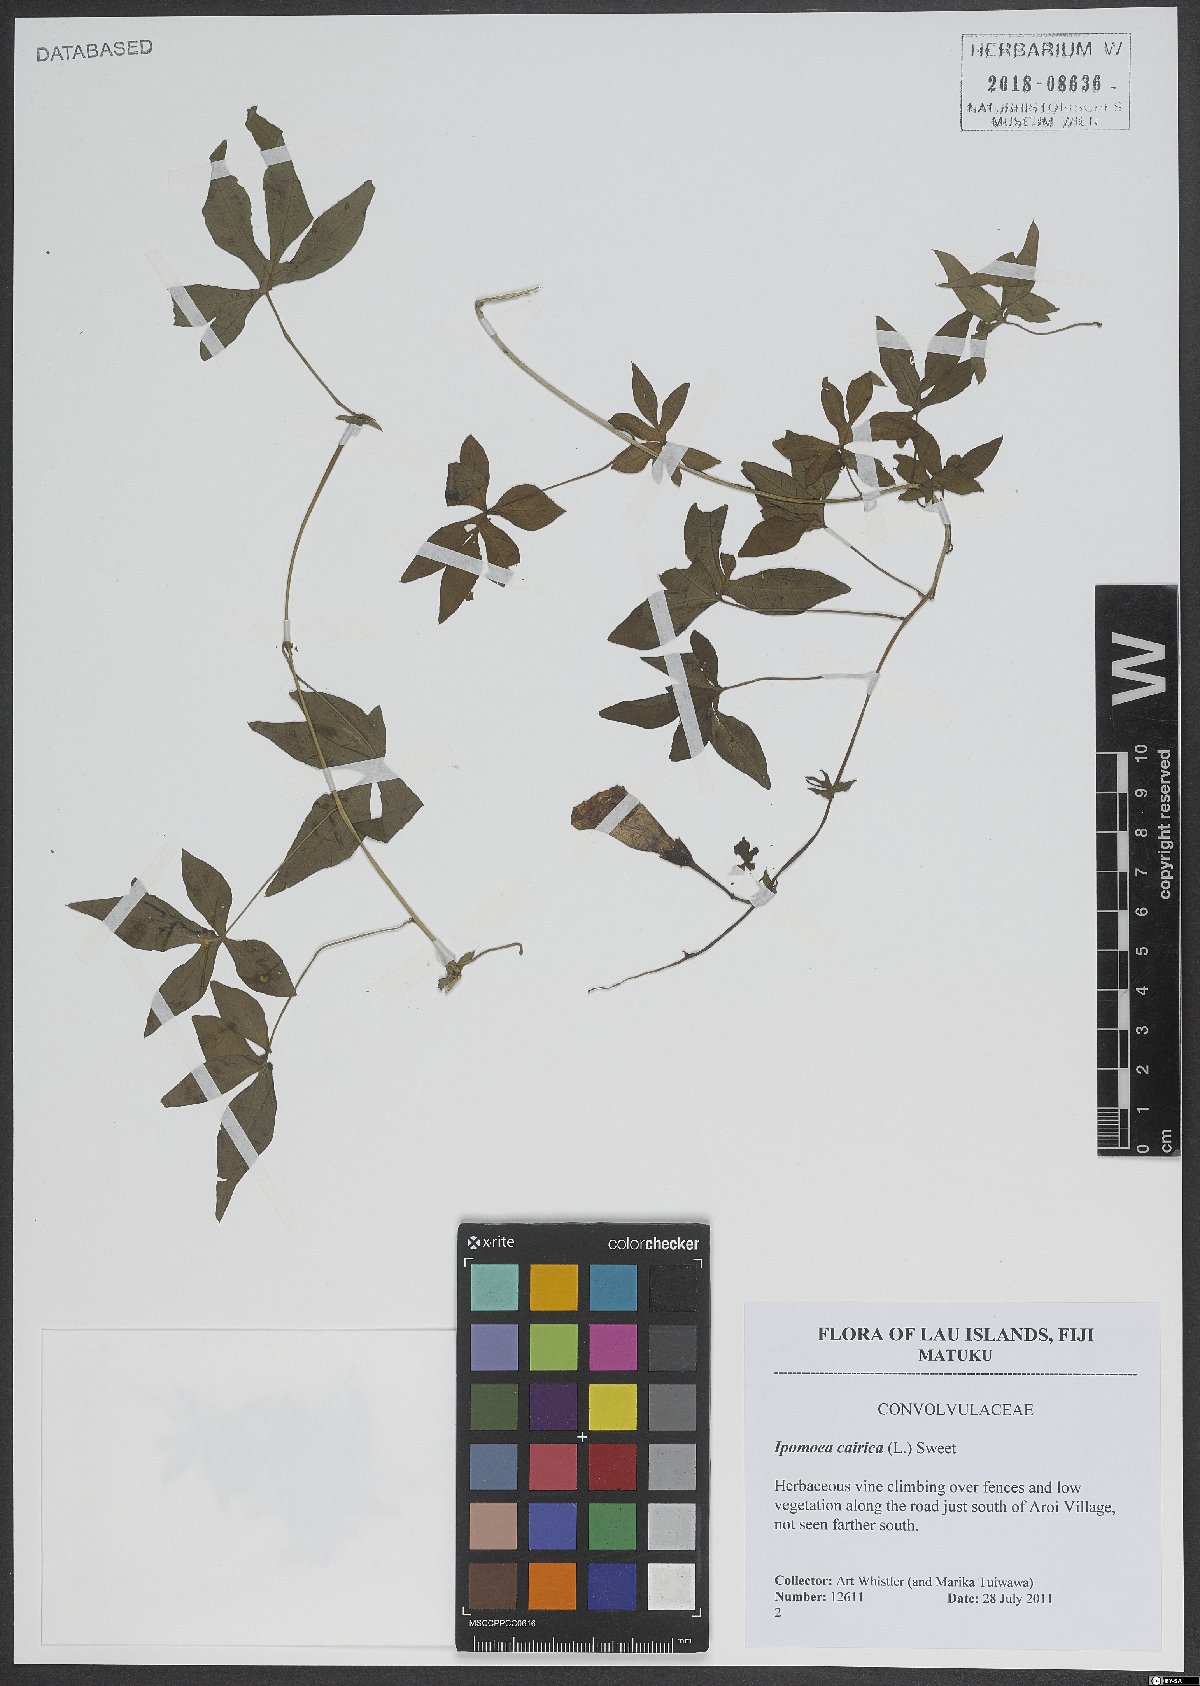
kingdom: Plantae
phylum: Tracheophyta
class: Magnoliopsida
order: Solanales
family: Convolvulaceae
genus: Ipomoea
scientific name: Ipomoea cairica
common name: Mile a minute vine
